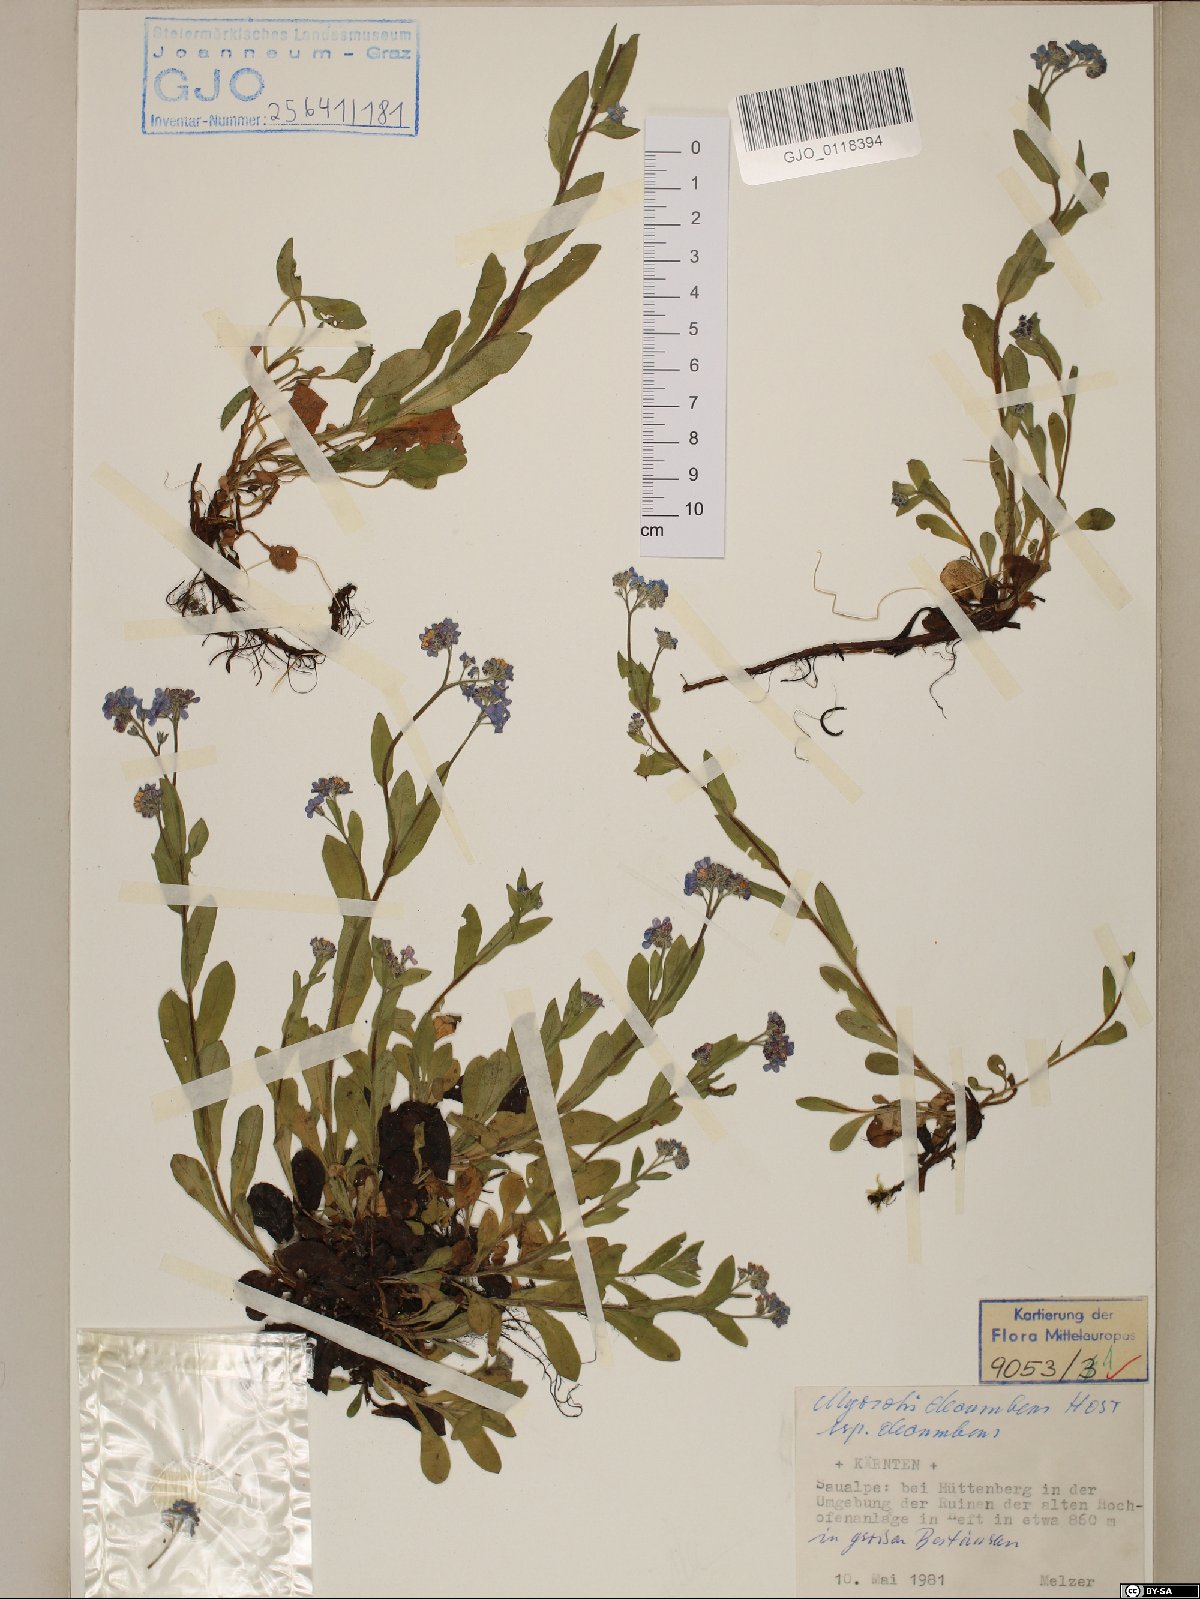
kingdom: Plantae
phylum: Tracheophyta
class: Magnoliopsida
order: Boraginales
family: Boraginaceae
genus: Myosotis
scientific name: Myosotis decumbens
